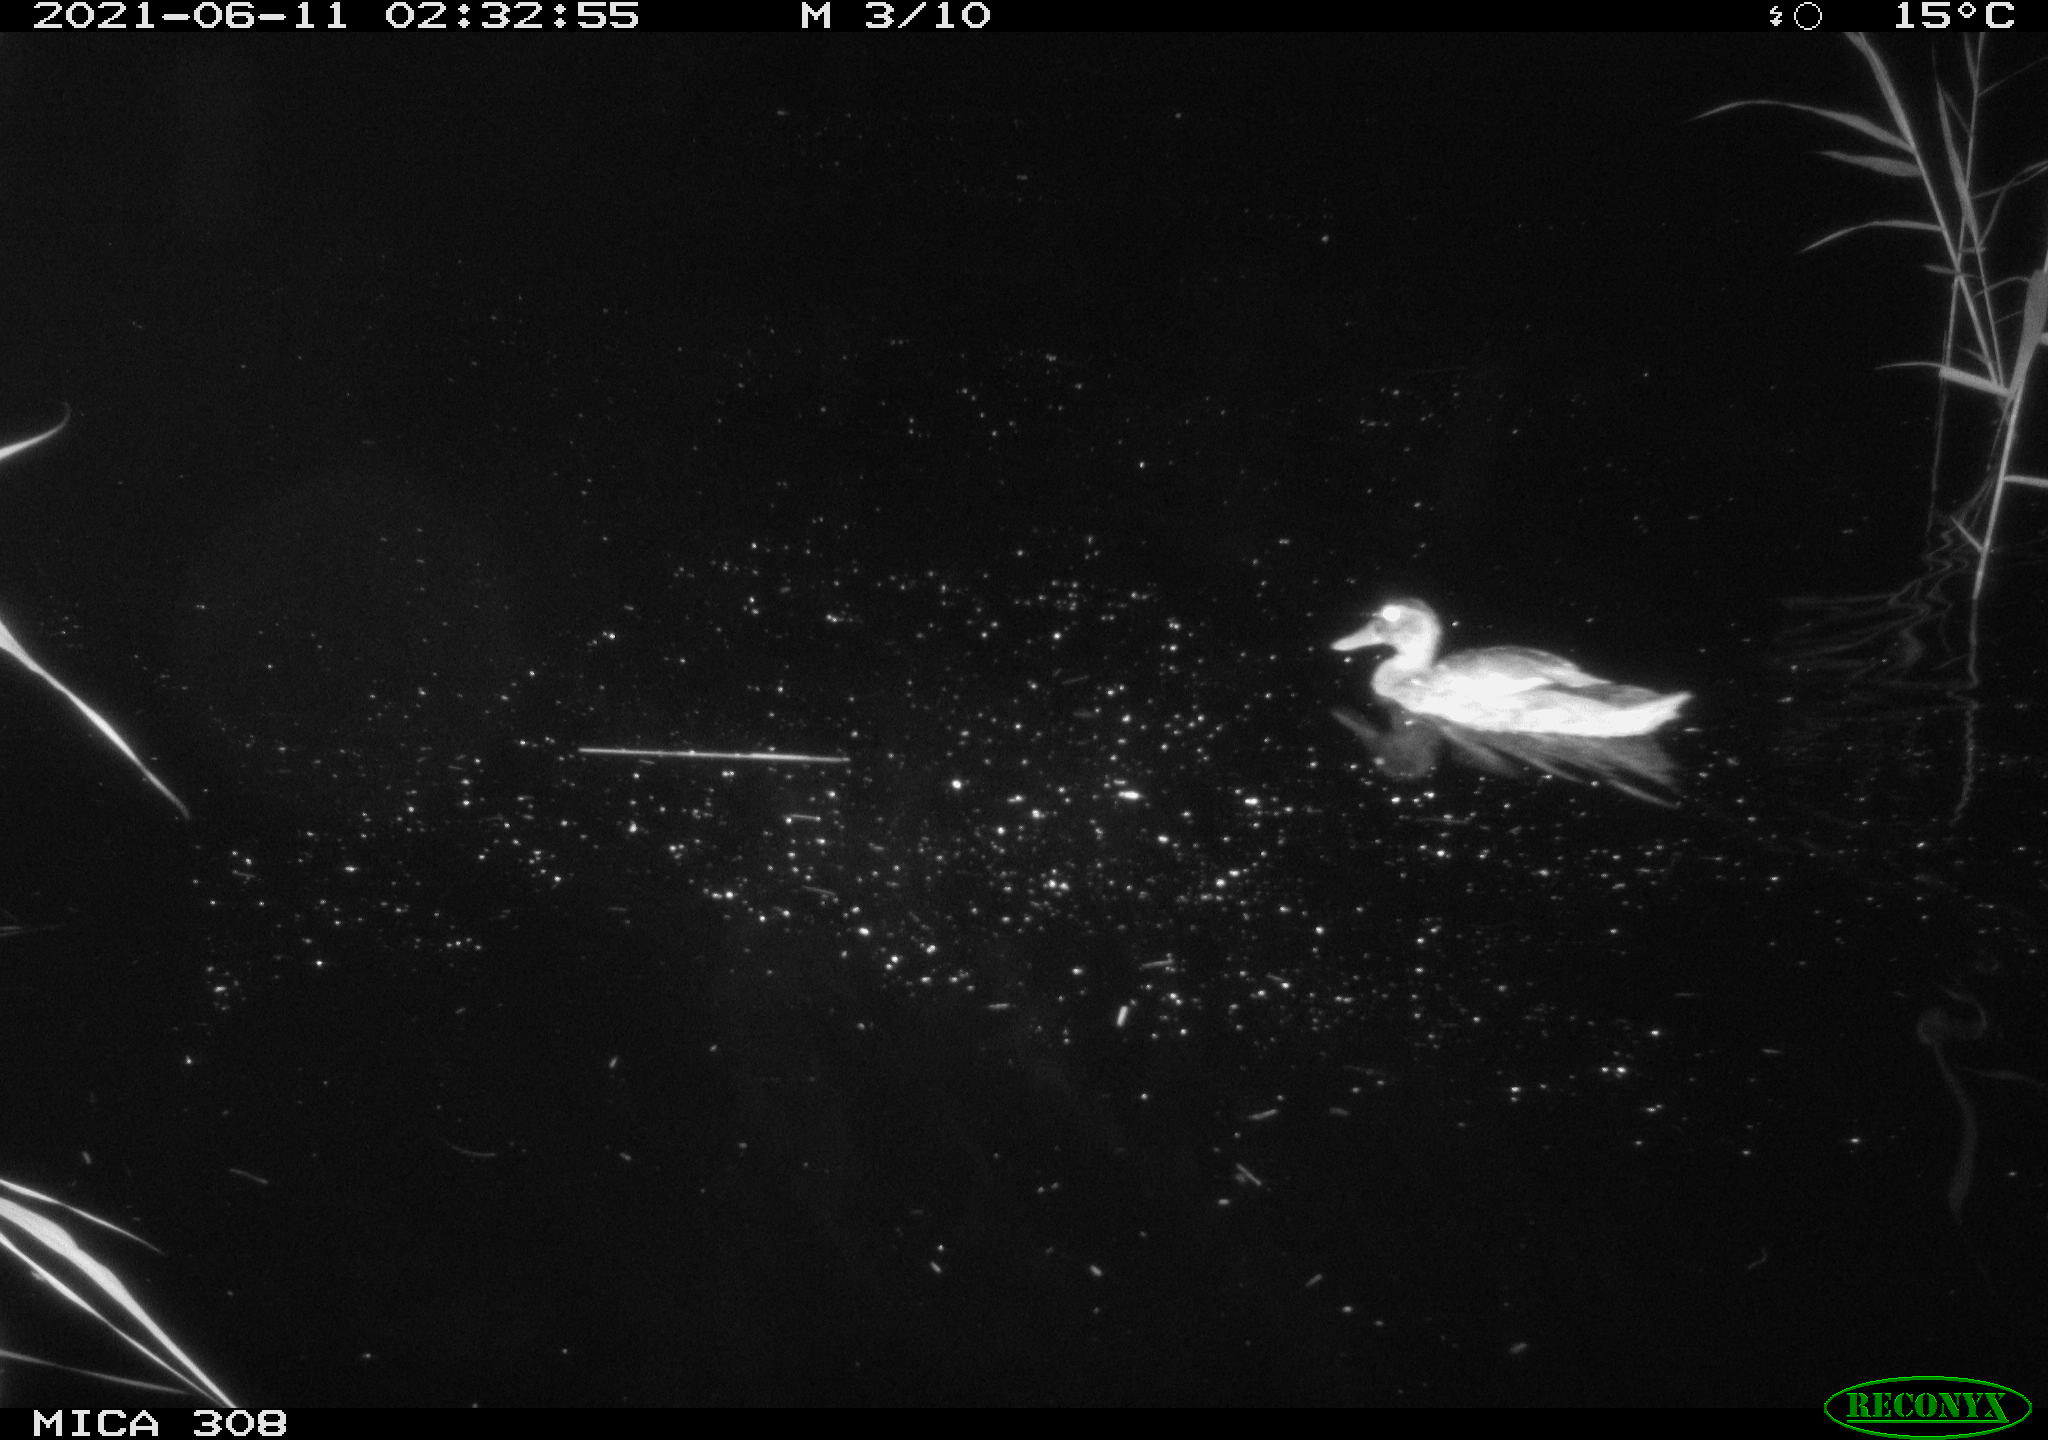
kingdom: Animalia
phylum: Chordata
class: Aves
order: Anseriformes
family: Anatidae
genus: Anas
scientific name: Anas platyrhynchos
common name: Mallard
